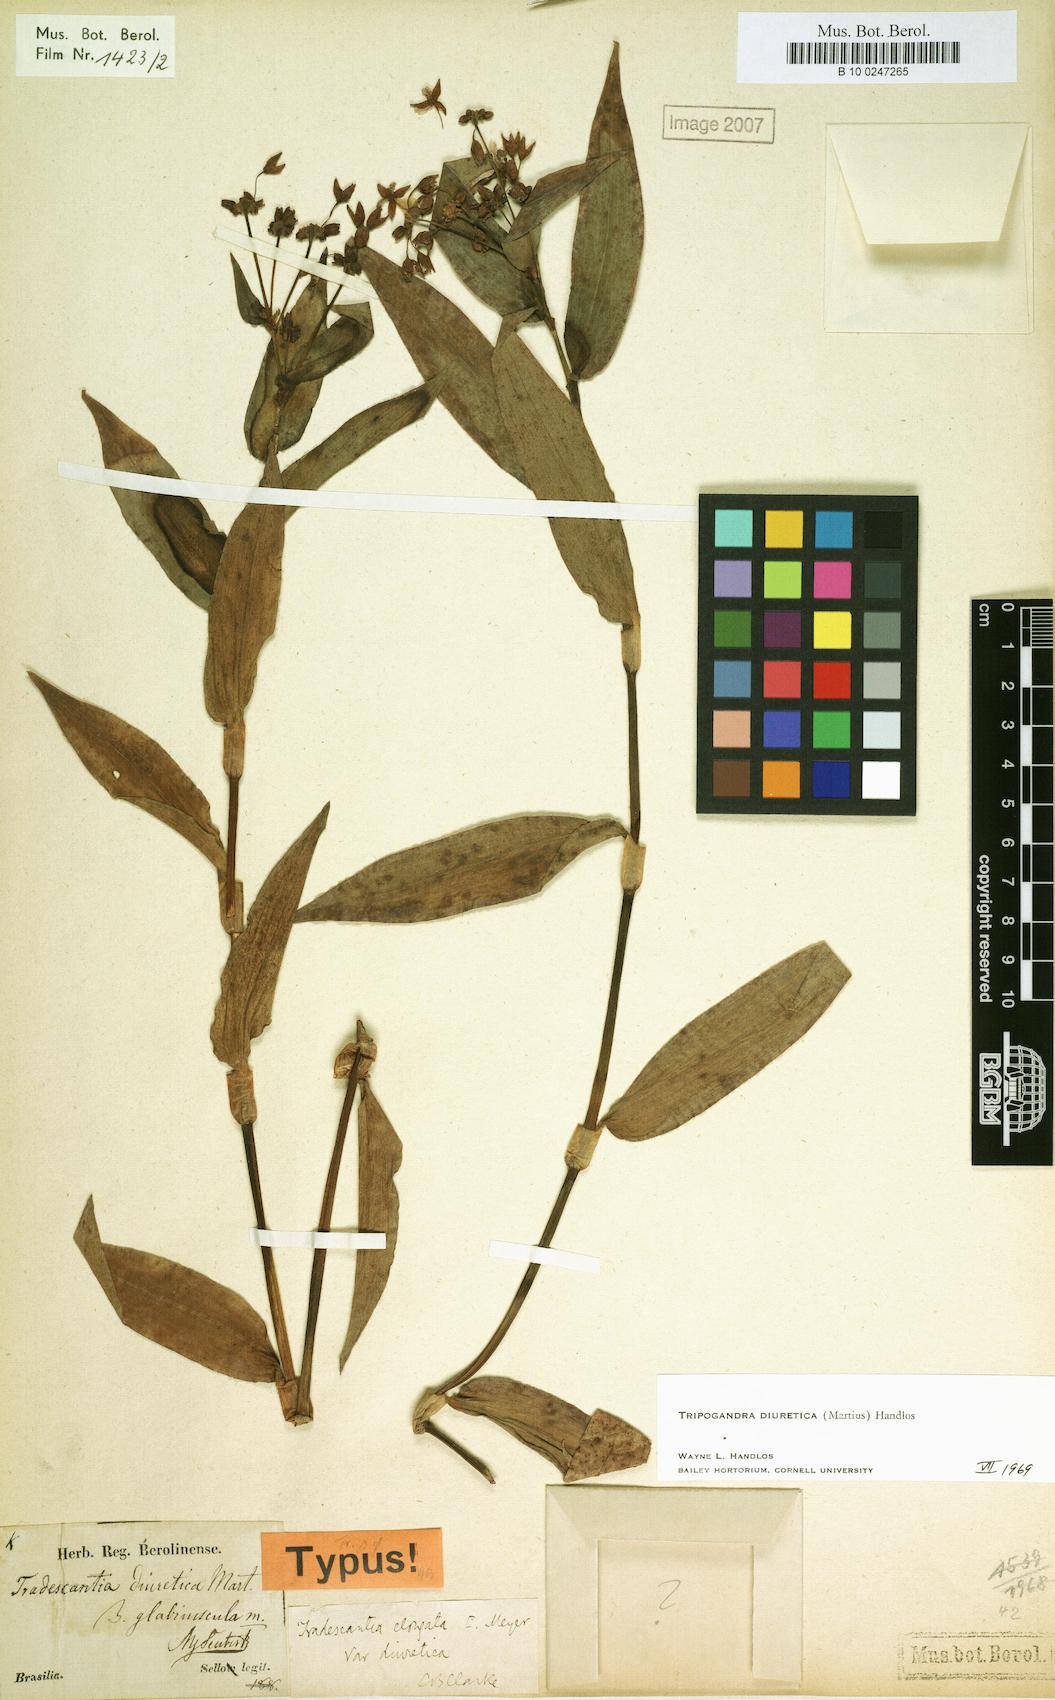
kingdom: Plantae
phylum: Tracheophyta
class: Liliopsida
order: Commelinales
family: Commelinaceae
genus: Callisia
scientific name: Callisia diuretica
